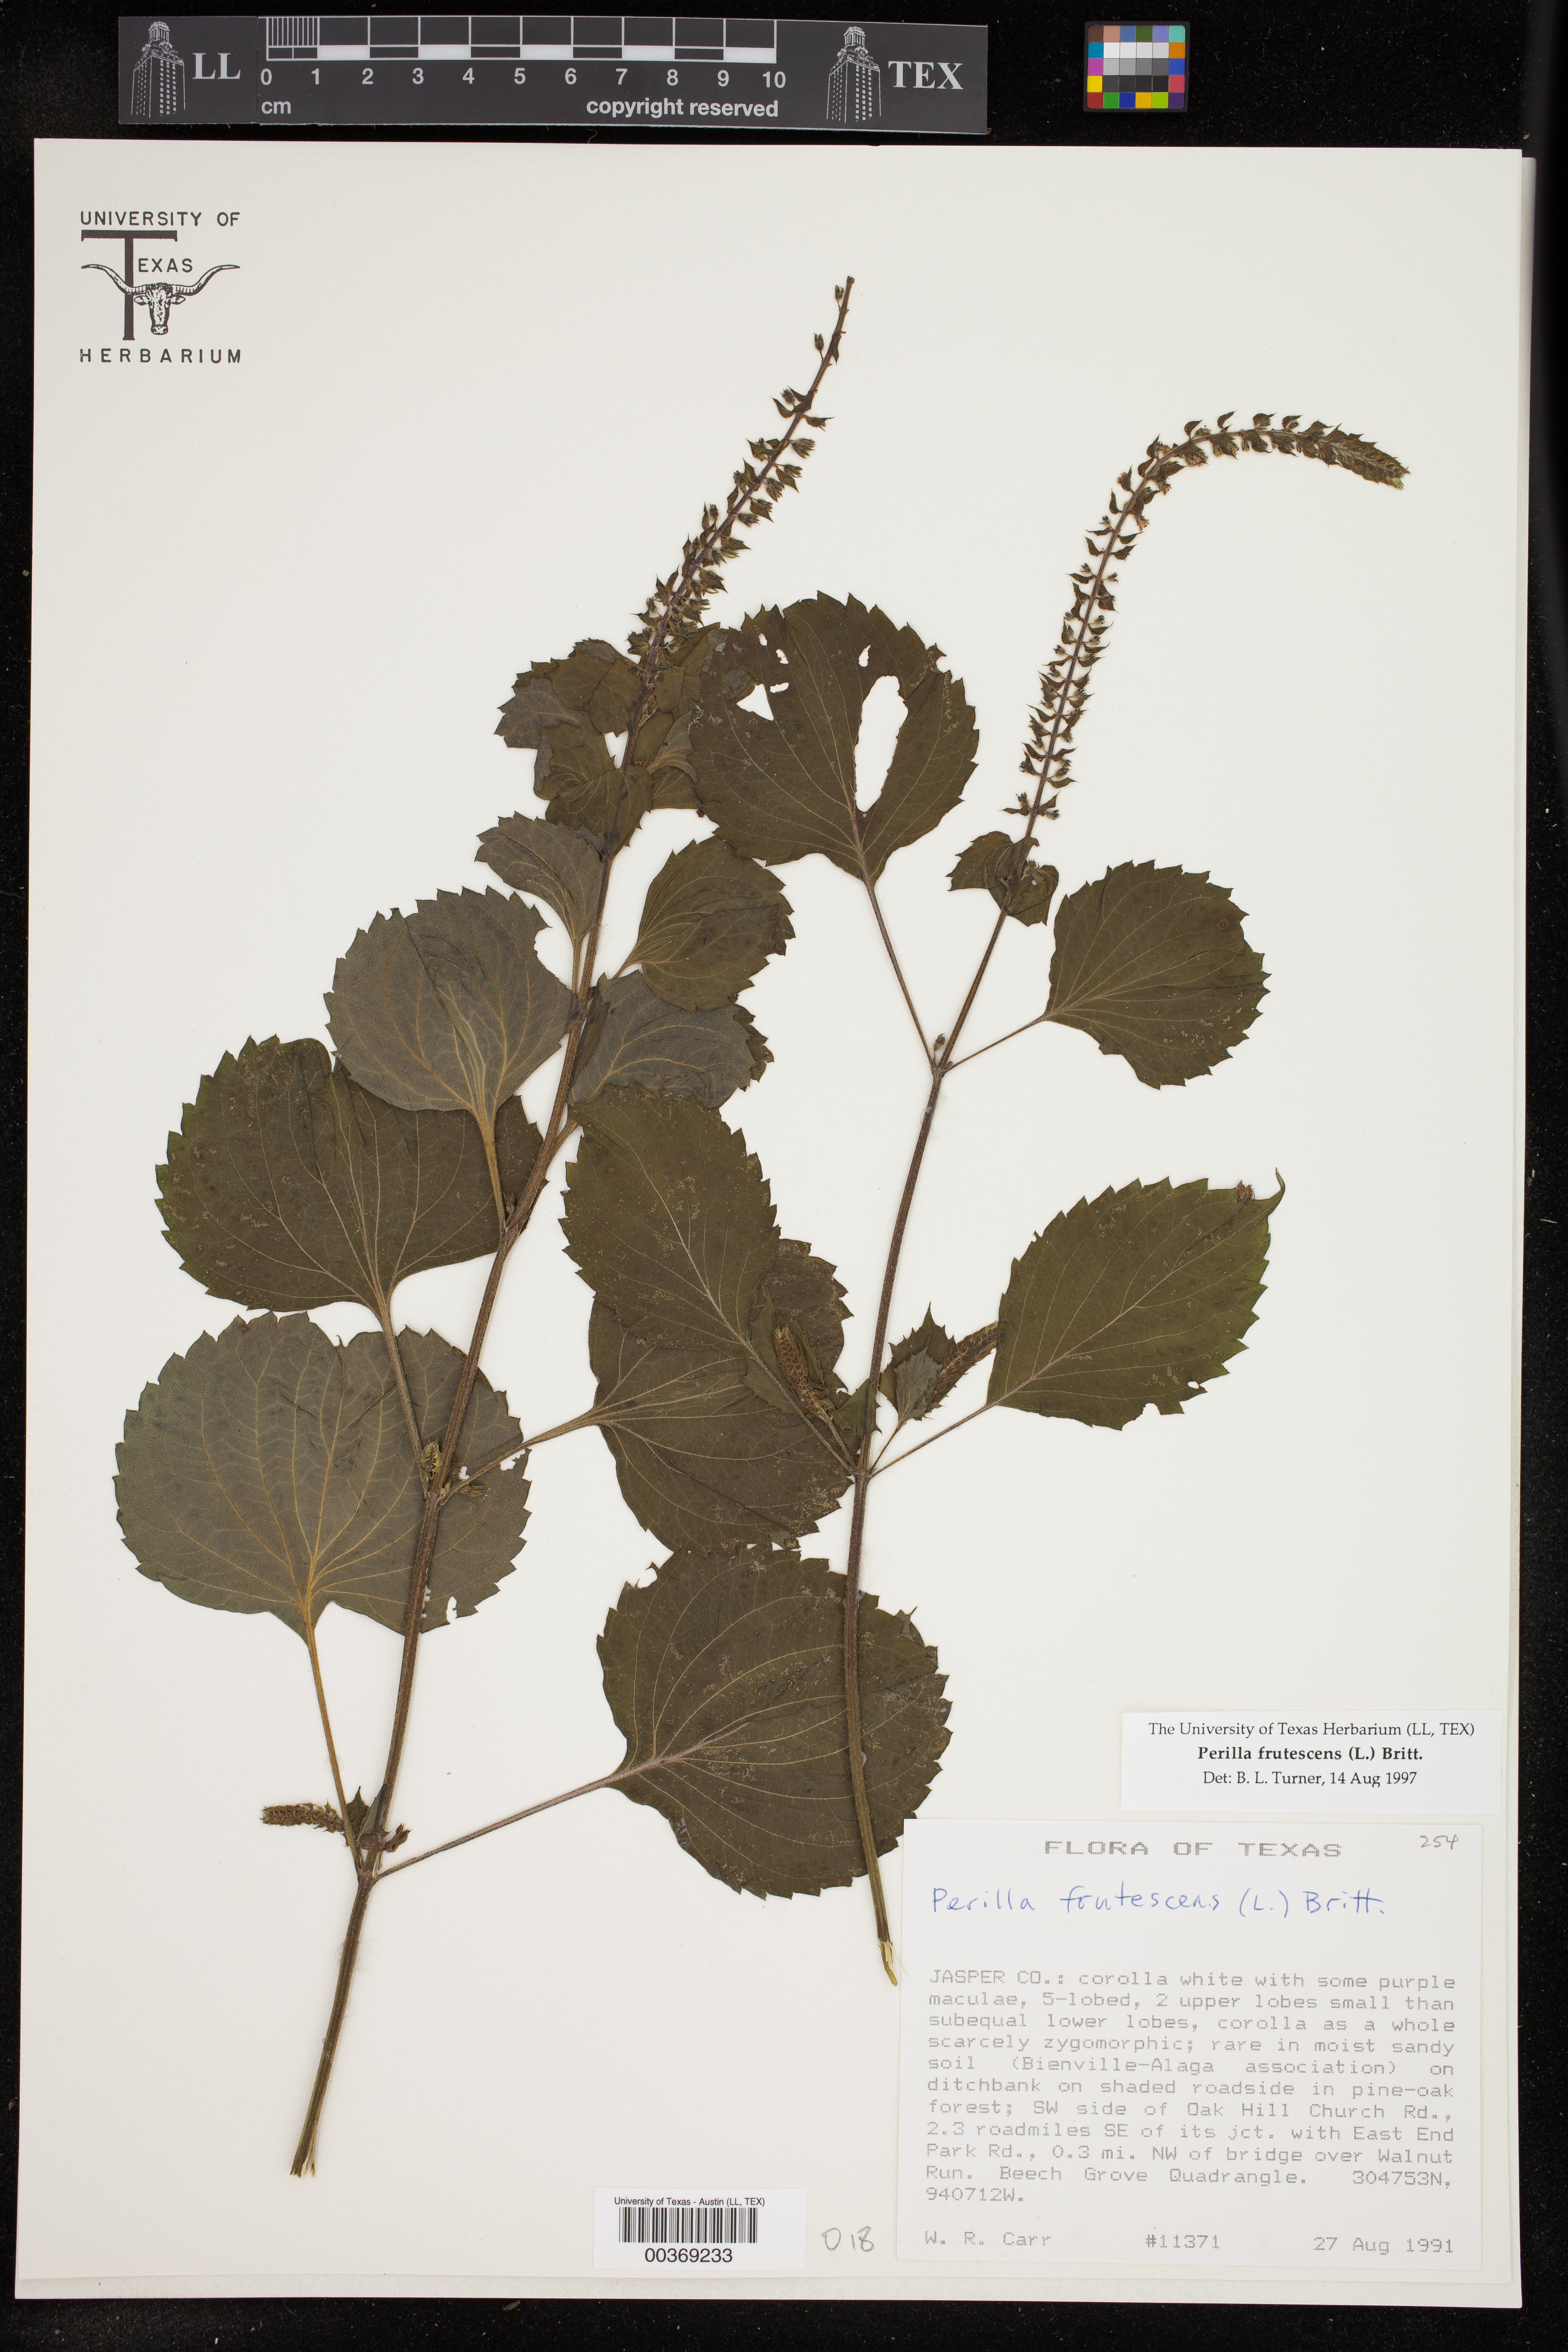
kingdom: Plantae
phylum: Tracheophyta
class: Magnoliopsida
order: Lamiales
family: Lamiaceae
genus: Perilla
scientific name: Perilla frutescens
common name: Perilla
